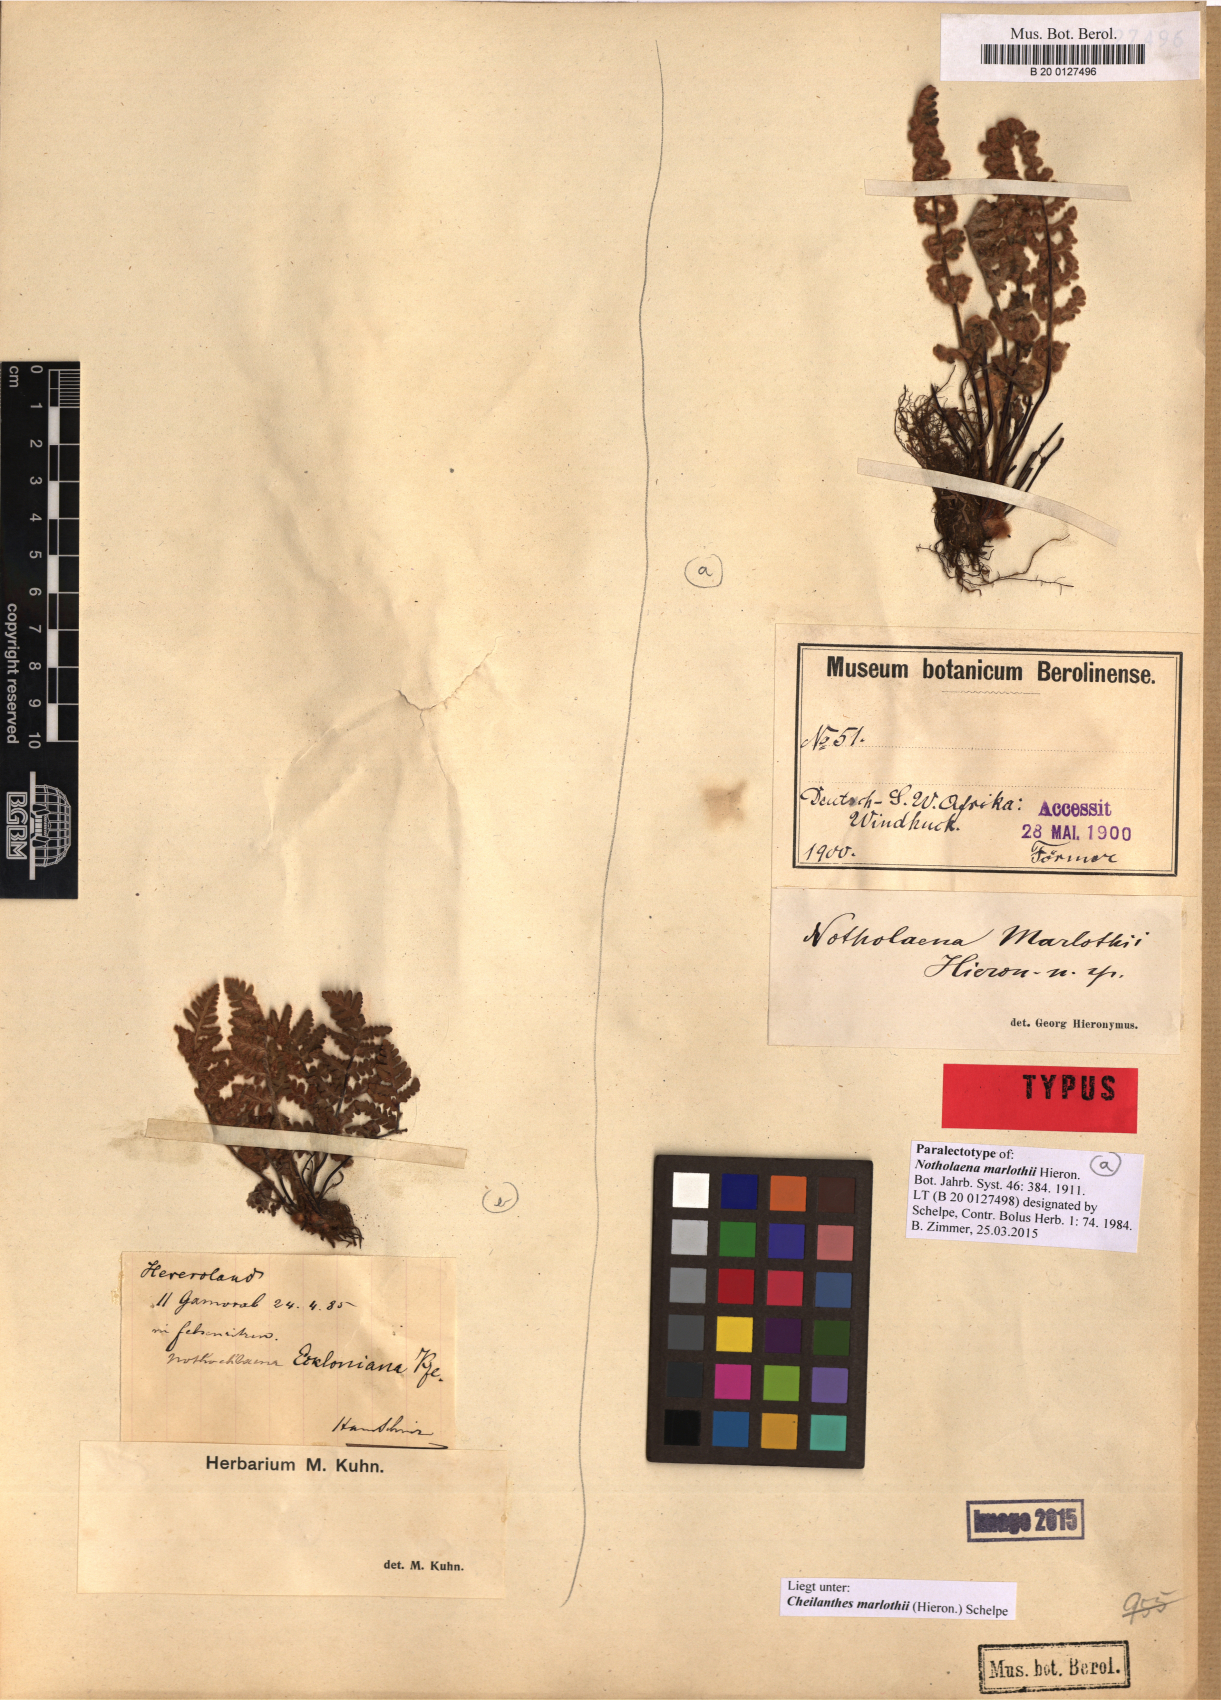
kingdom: Plantae
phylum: Tracheophyta
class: Polypodiopsida
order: Polypodiales
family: Pteridaceae
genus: Cheilanthes
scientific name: Cheilanthes marlothii
